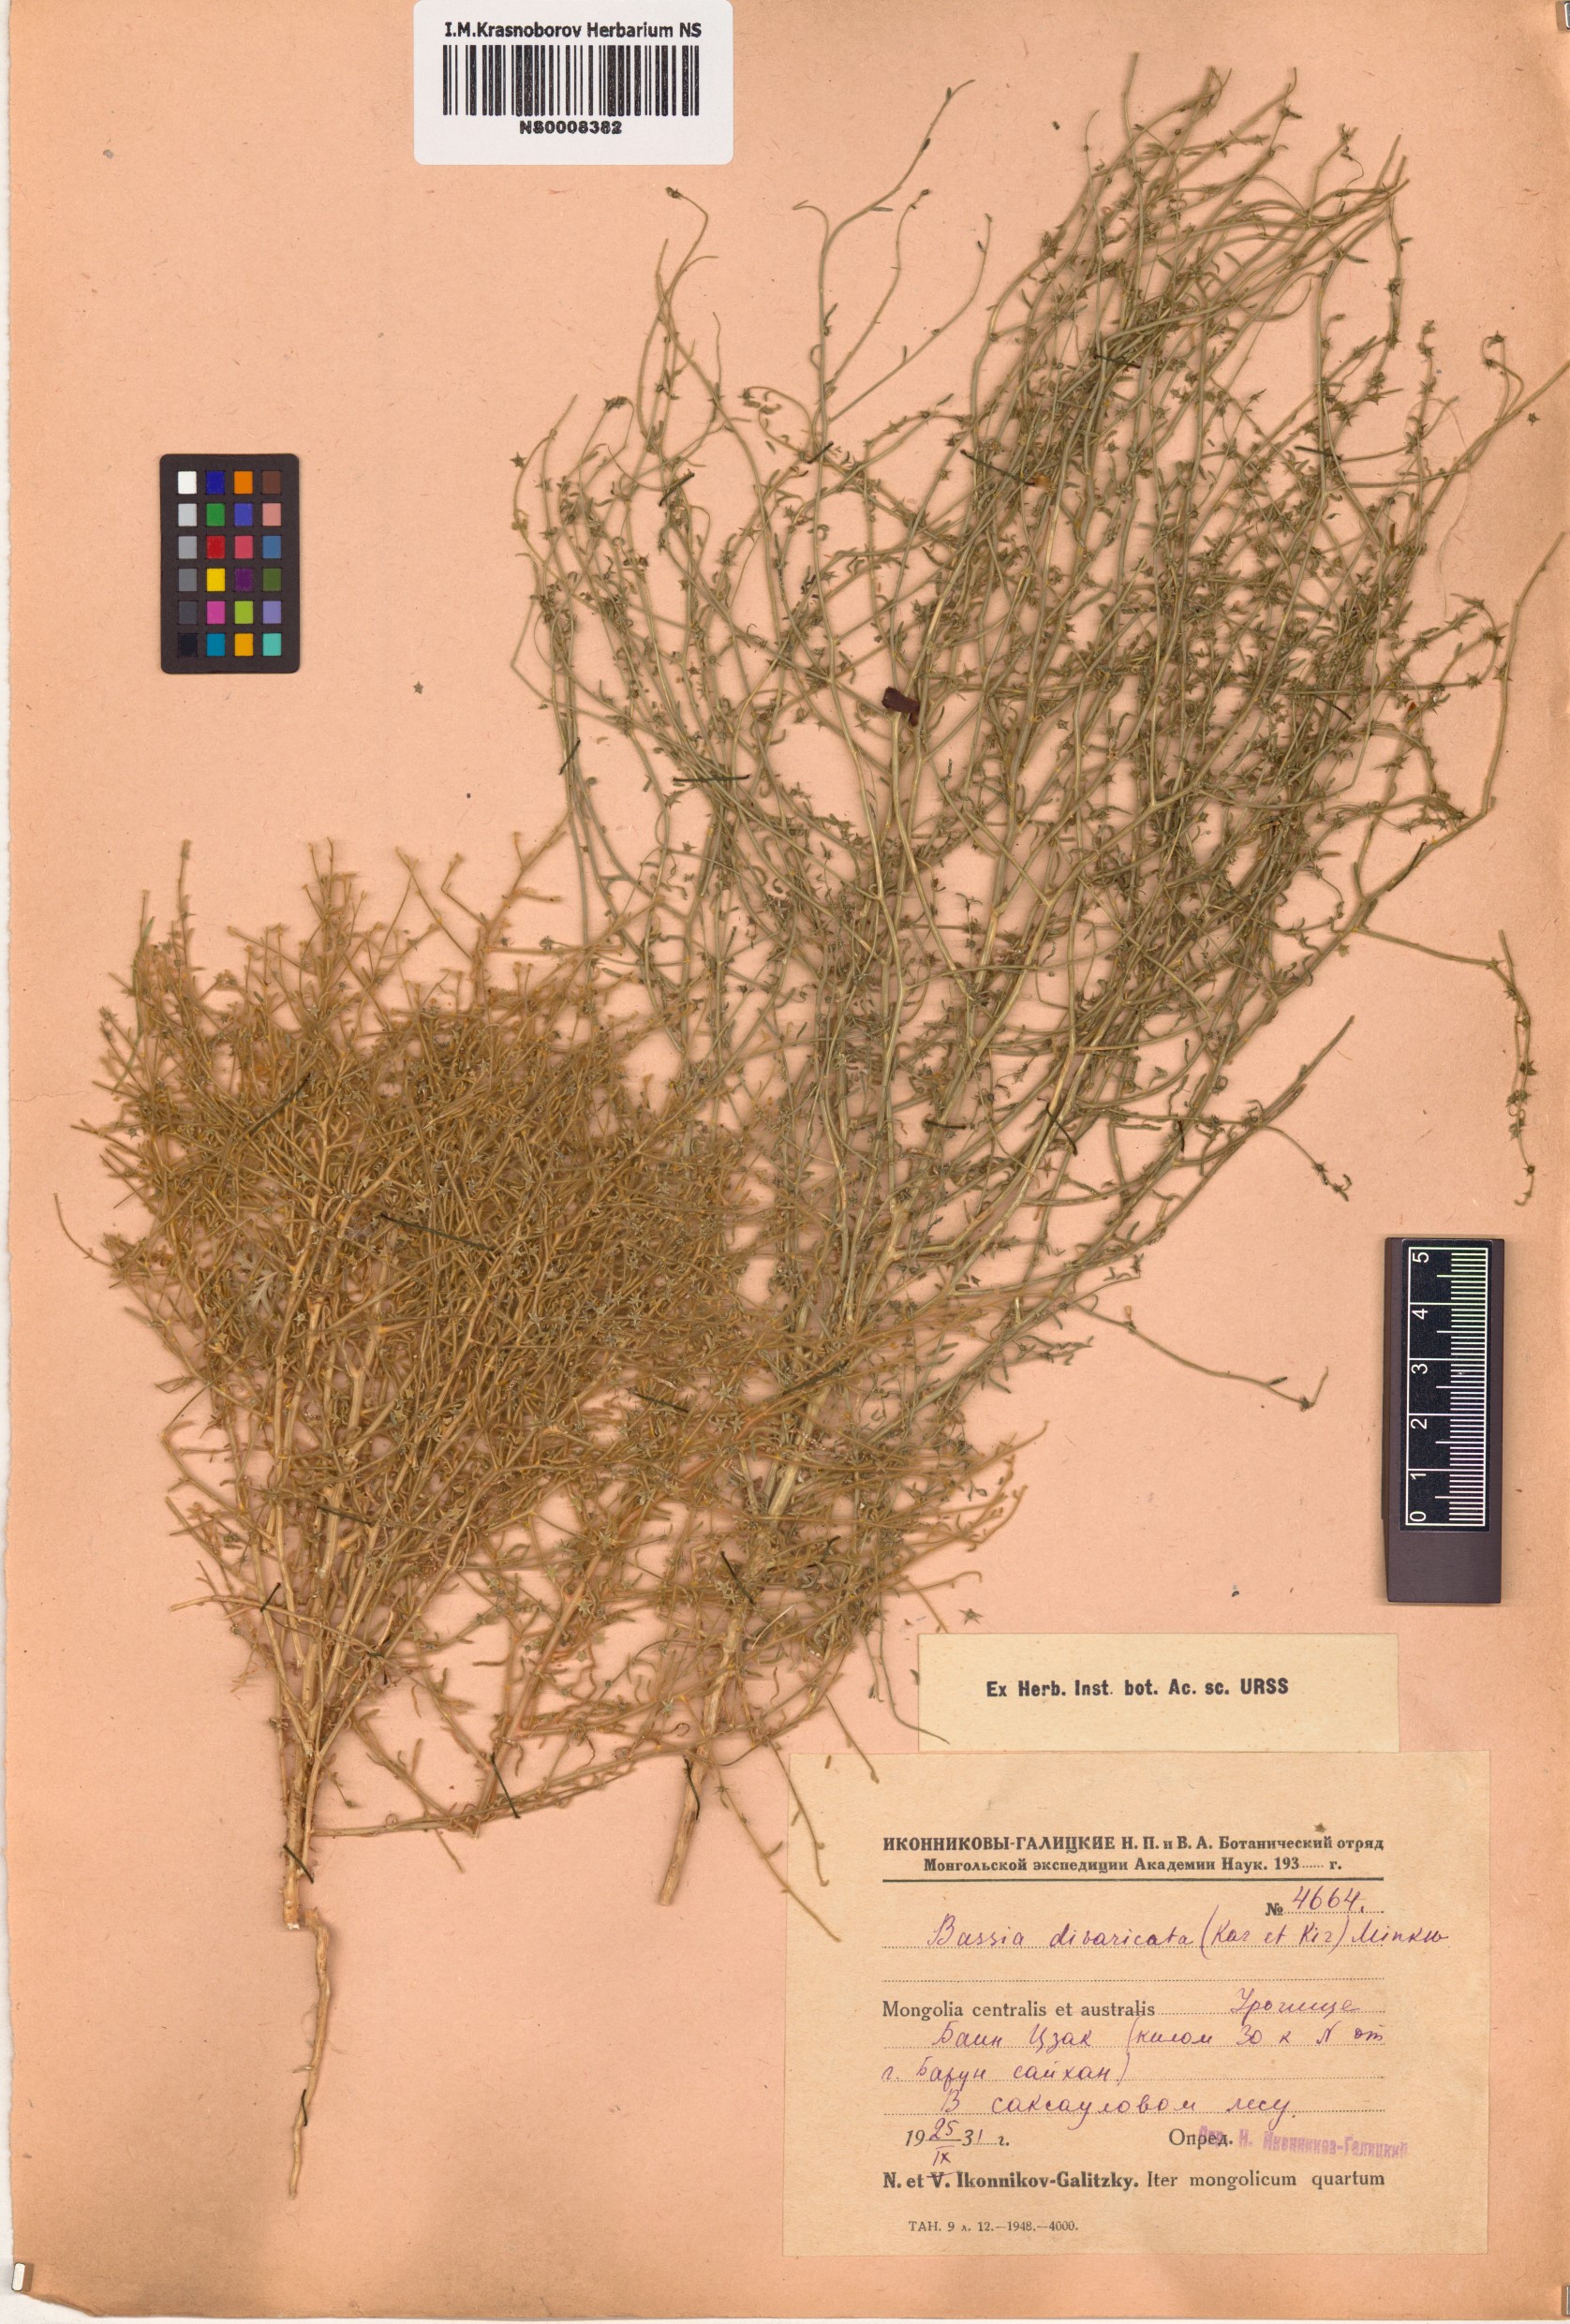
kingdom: Plantae
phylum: Tracheophyta
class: Magnoliopsida
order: Caryophyllales
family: Amaranthaceae
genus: Grubovia
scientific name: Grubovia dasyphylla
